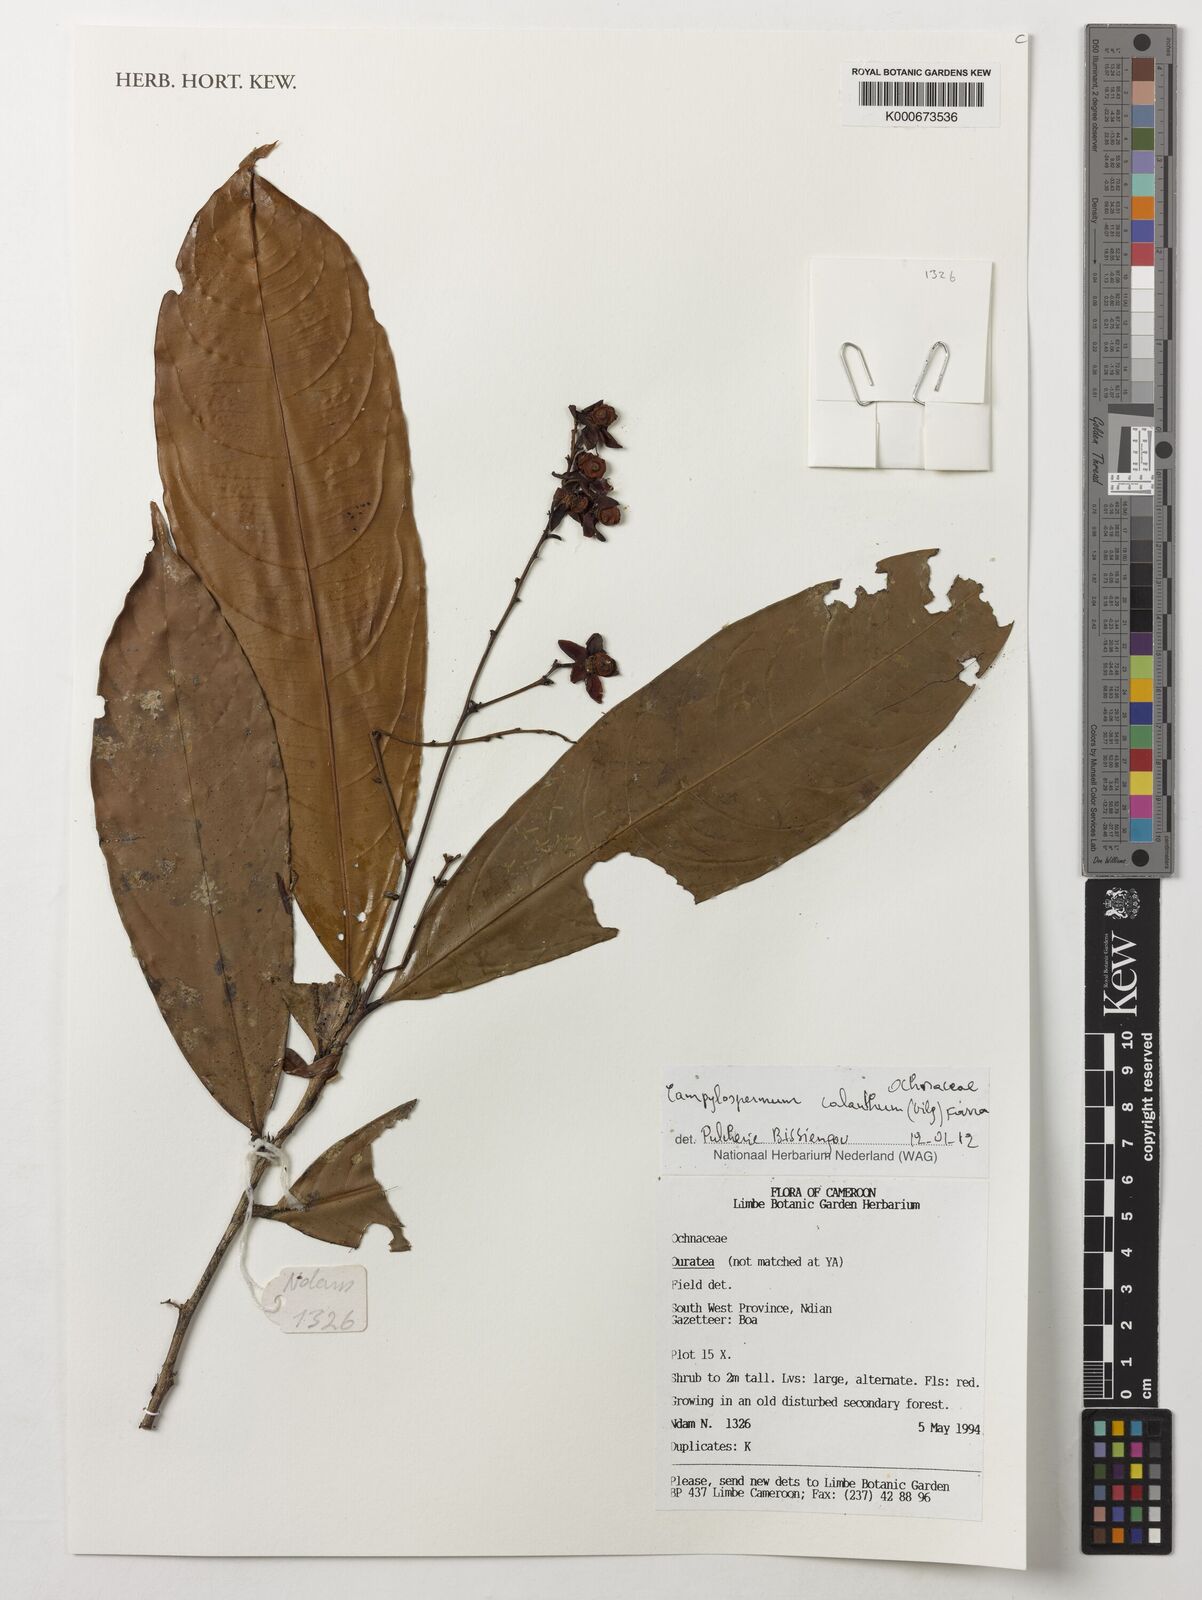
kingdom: Plantae
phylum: Tracheophyta
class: Magnoliopsida
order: Malpighiales
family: Ochnaceae
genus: Campylospermum
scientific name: Campylospermum calanthum
